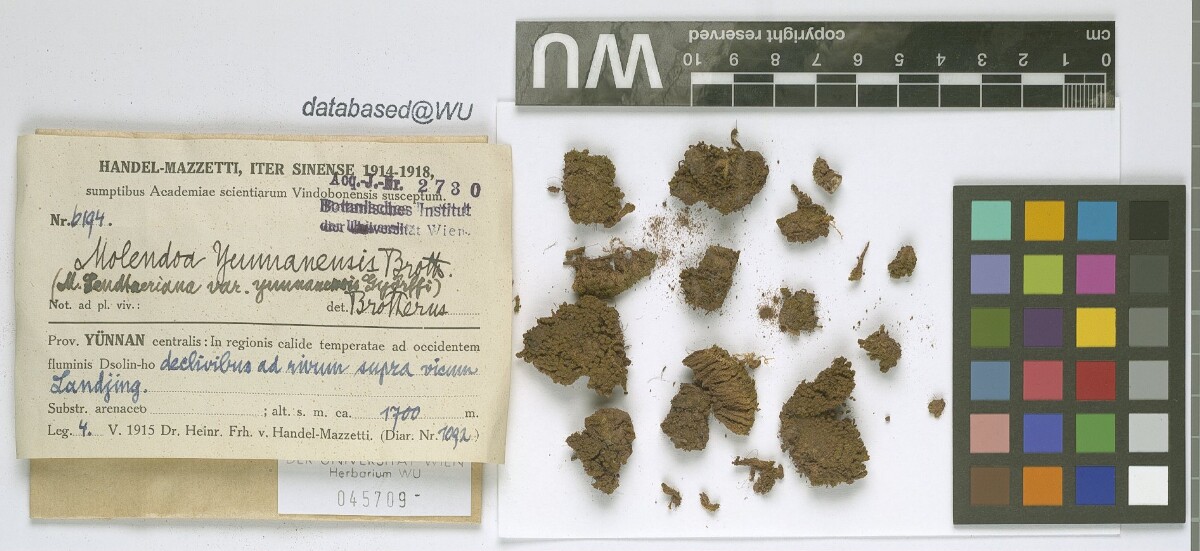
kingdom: Plantae
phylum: Bryophyta
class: Bryopsida
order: Pottiales
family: Pottiaceae
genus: Molendoa
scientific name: Molendoa sendtneriana
